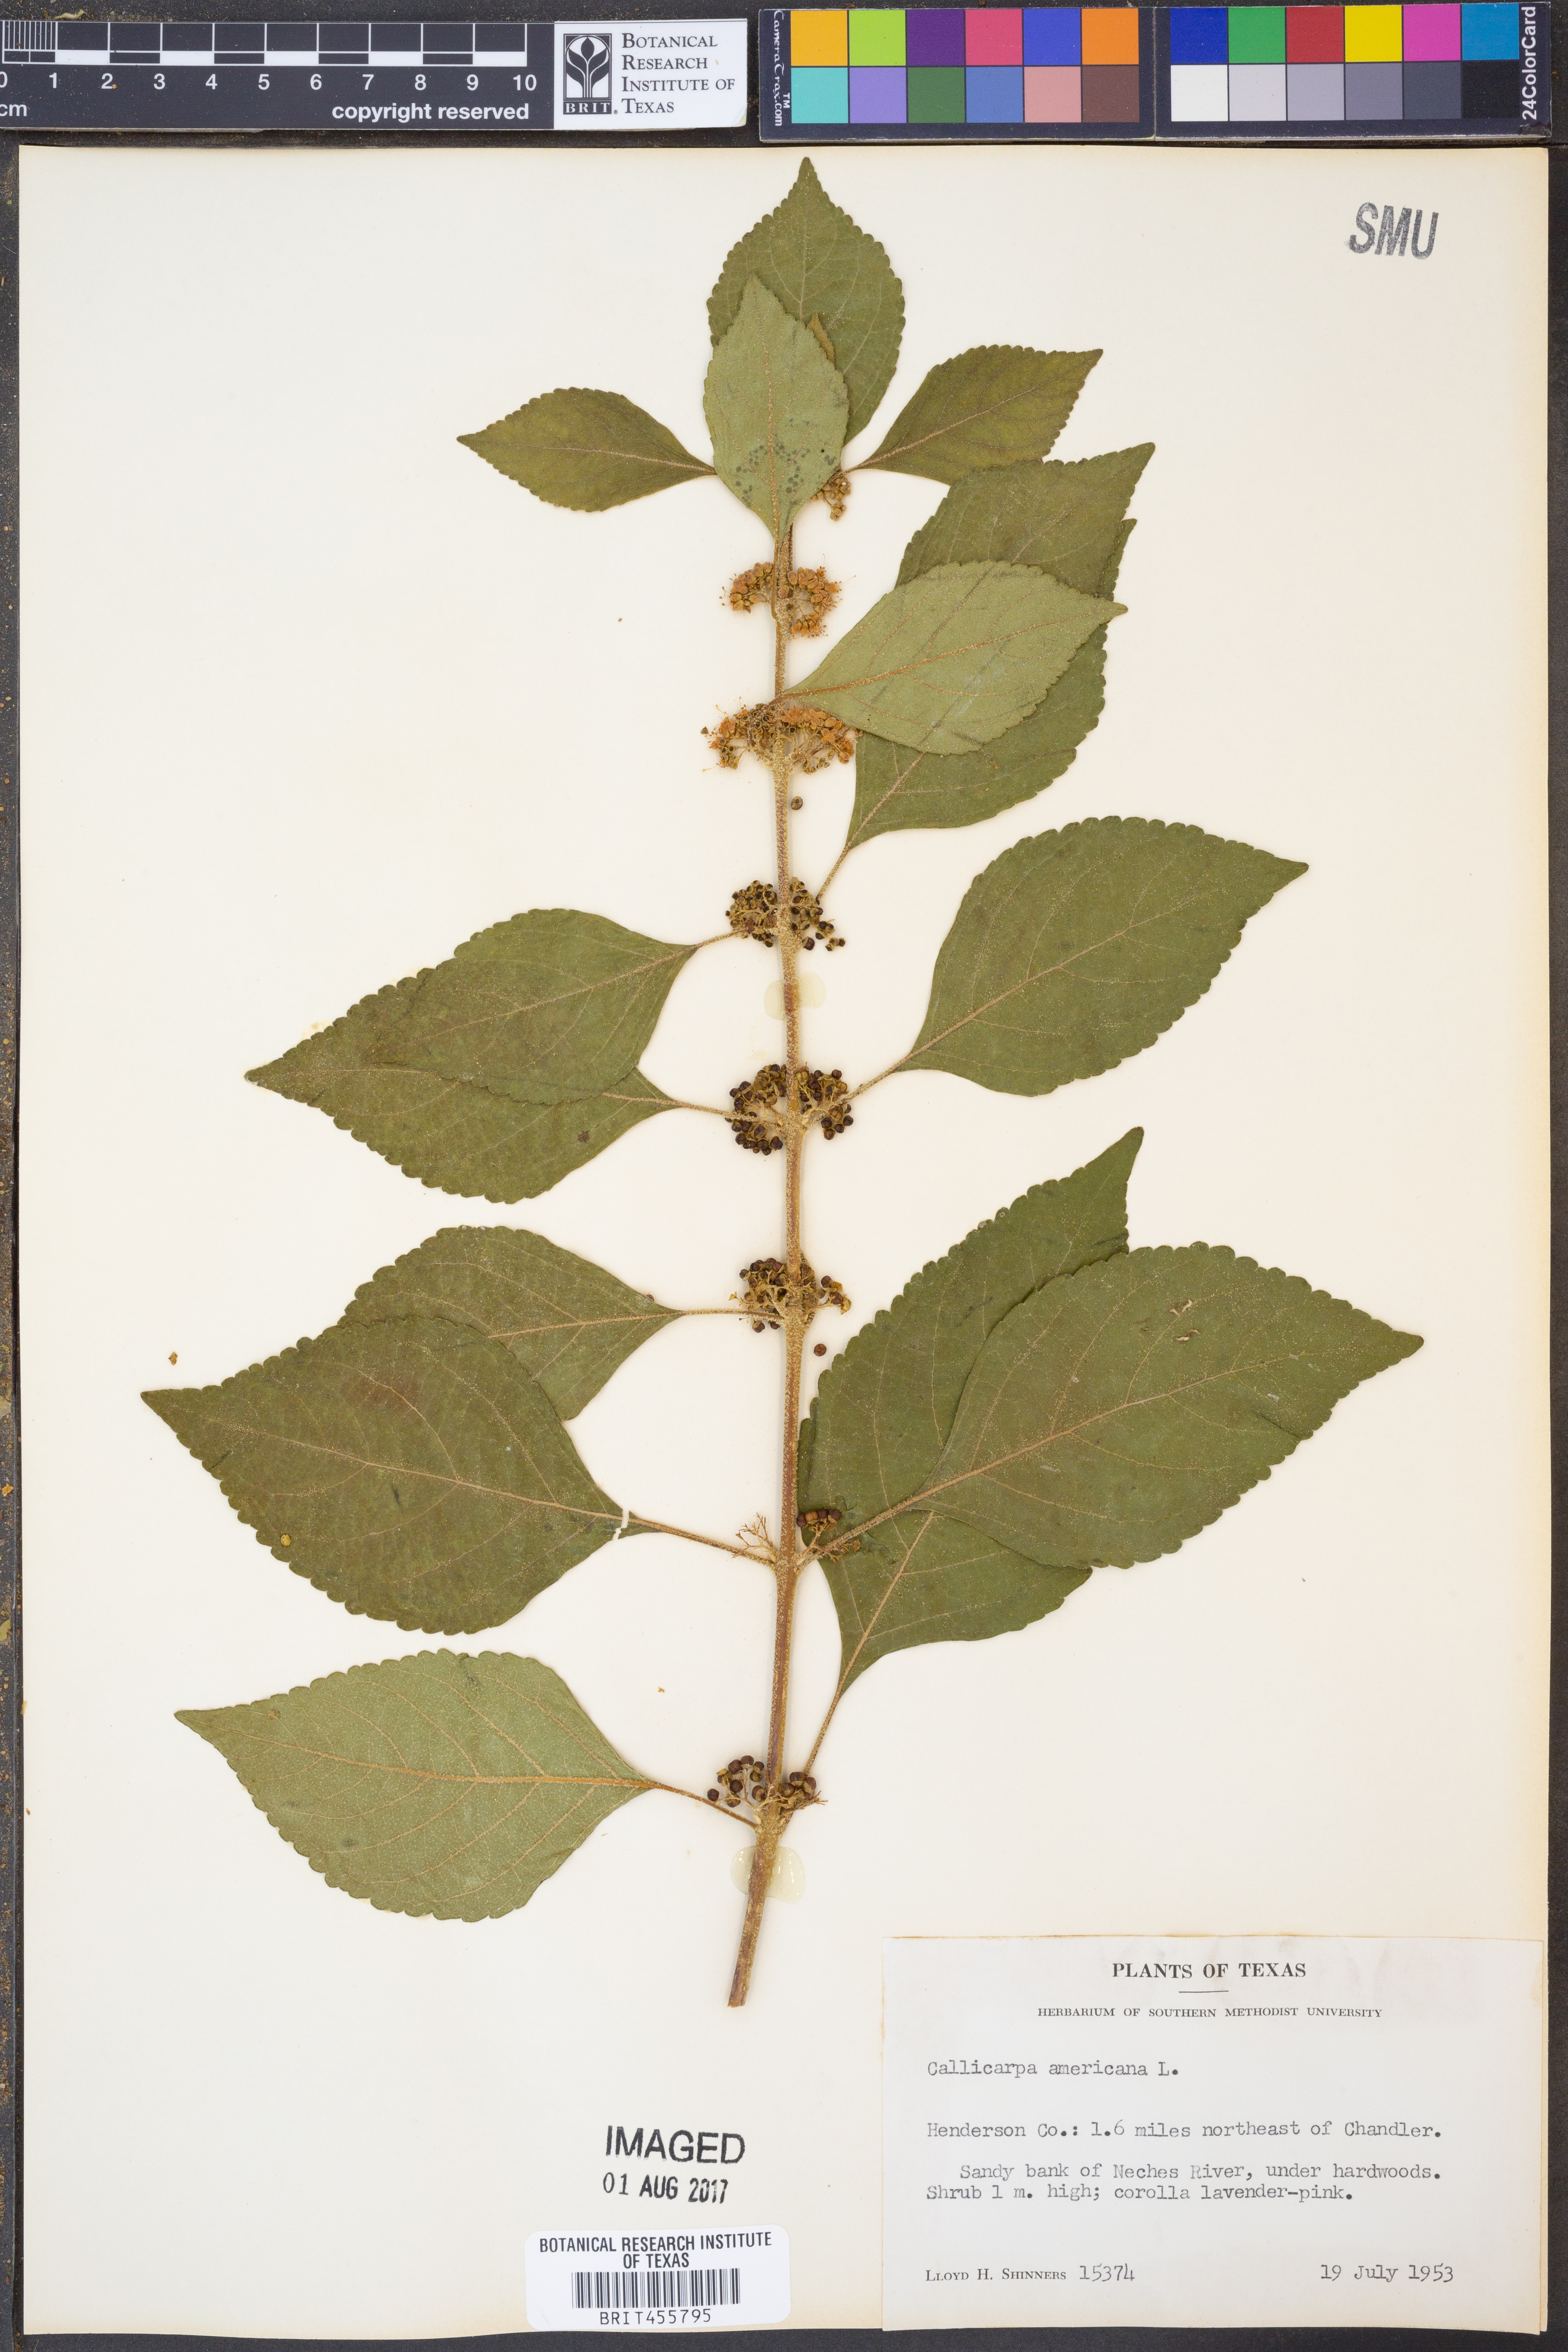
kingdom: Plantae
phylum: Tracheophyta
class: Magnoliopsida
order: Lamiales
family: Lamiaceae
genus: Callicarpa
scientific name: Callicarpa americana
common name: American beautyberry
